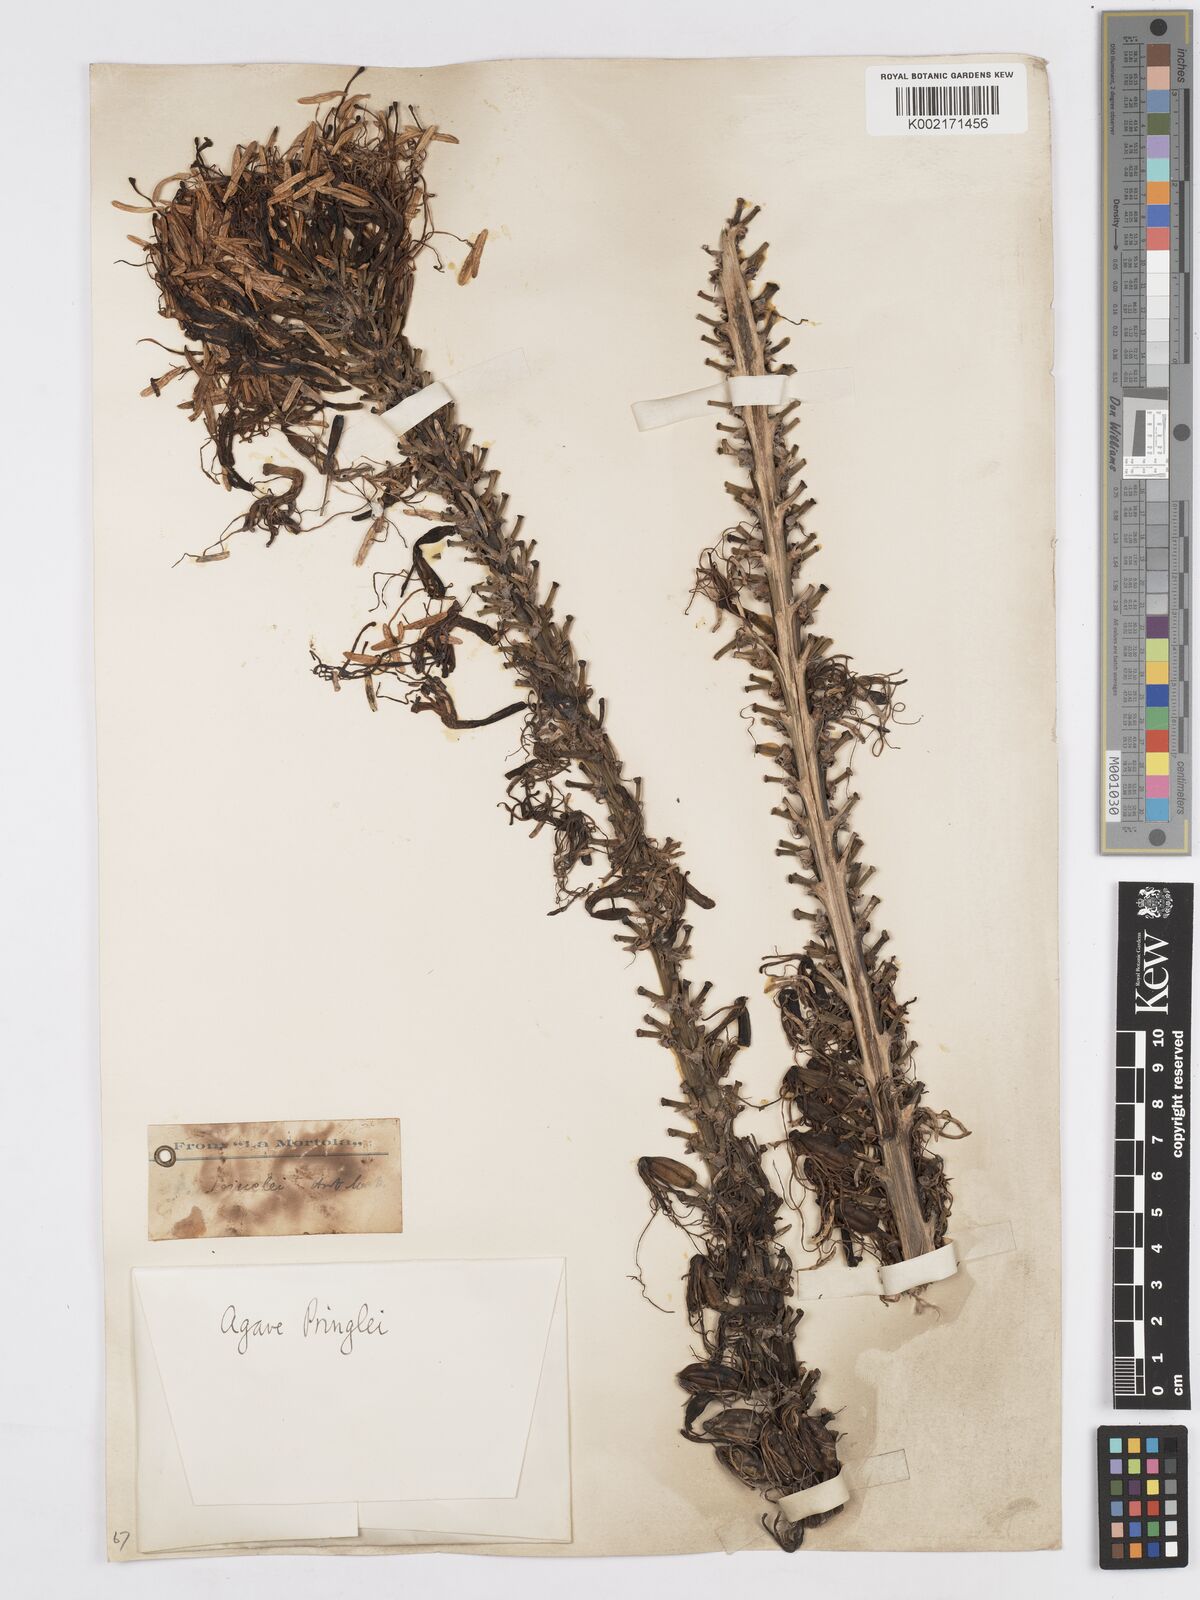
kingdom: Plantae
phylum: Tracheophyta
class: Liliopsida
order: Asparagales
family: Asparagaceae
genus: Agave
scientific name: Agave pringlei
